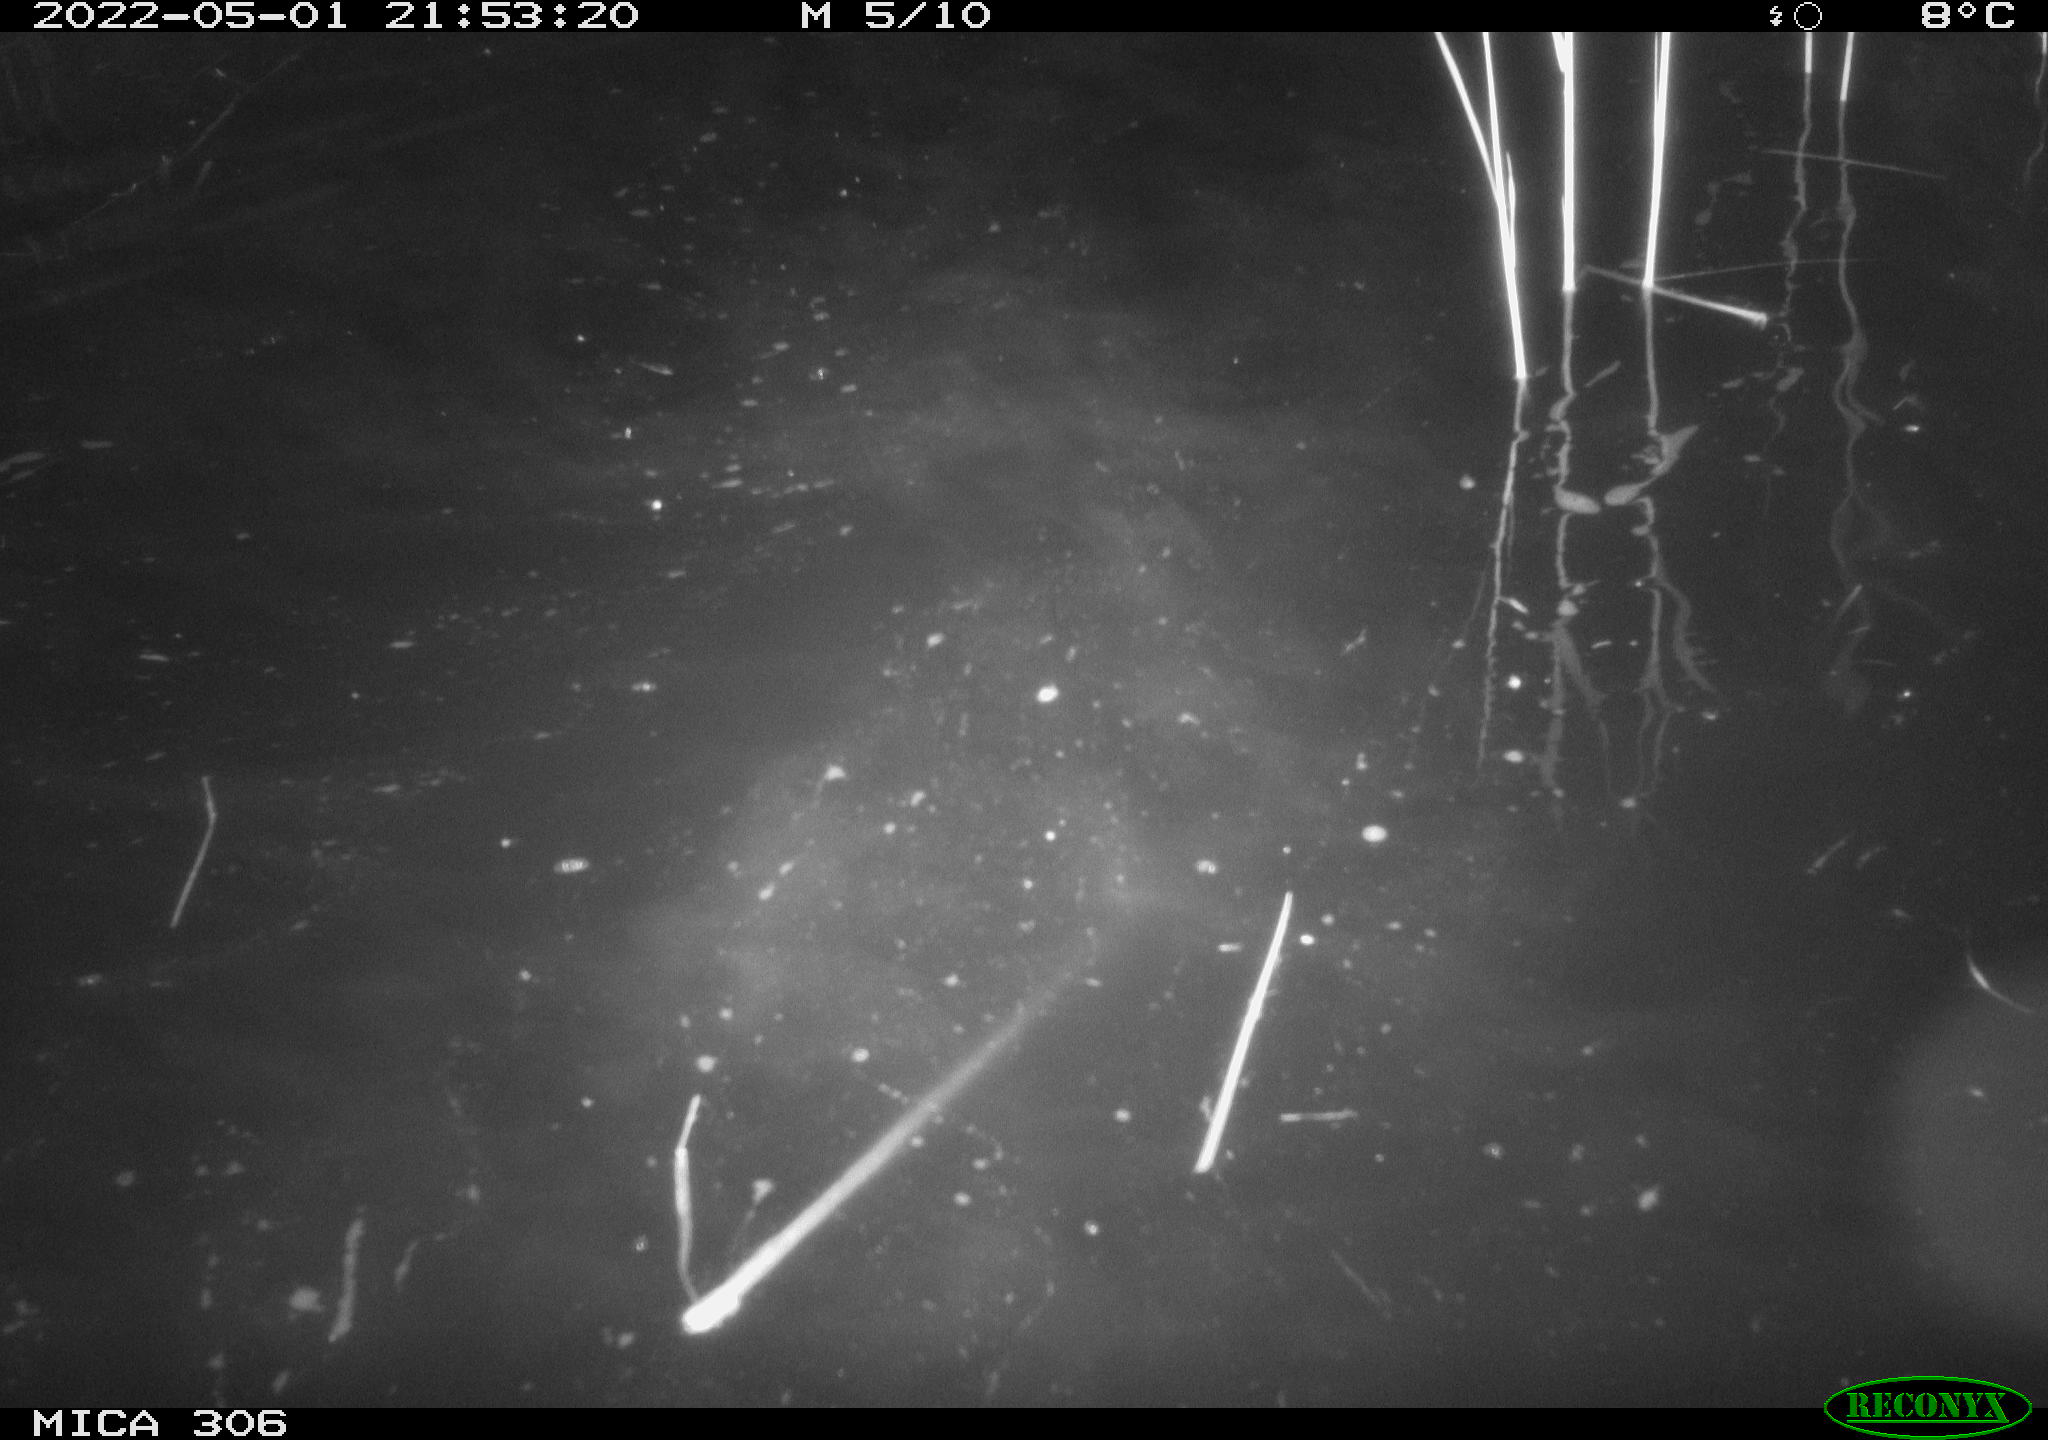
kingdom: Animalia
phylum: Chordata
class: Mammalia
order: Rodentia
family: Cricetidae
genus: Ondatra
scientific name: Ondatra zibethicus
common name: Muskrat
